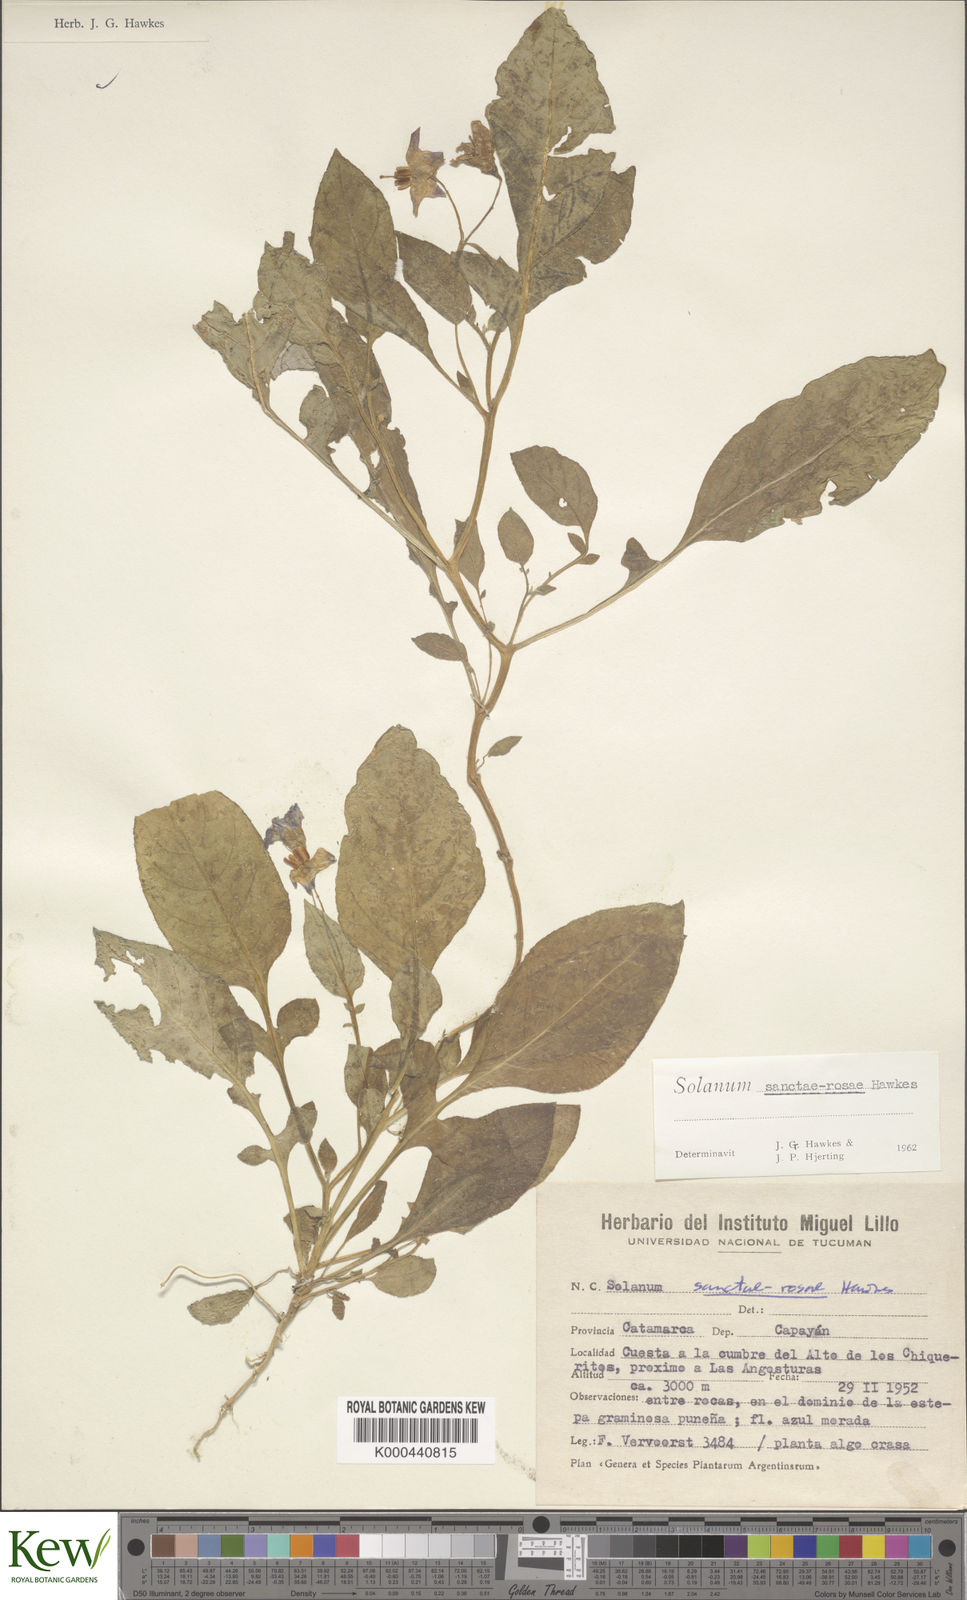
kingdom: Plantae
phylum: Tracheophyta
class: Magnoliopsida
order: Solanales
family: Solanaceae
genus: Solanum
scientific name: Solanum boliviense
